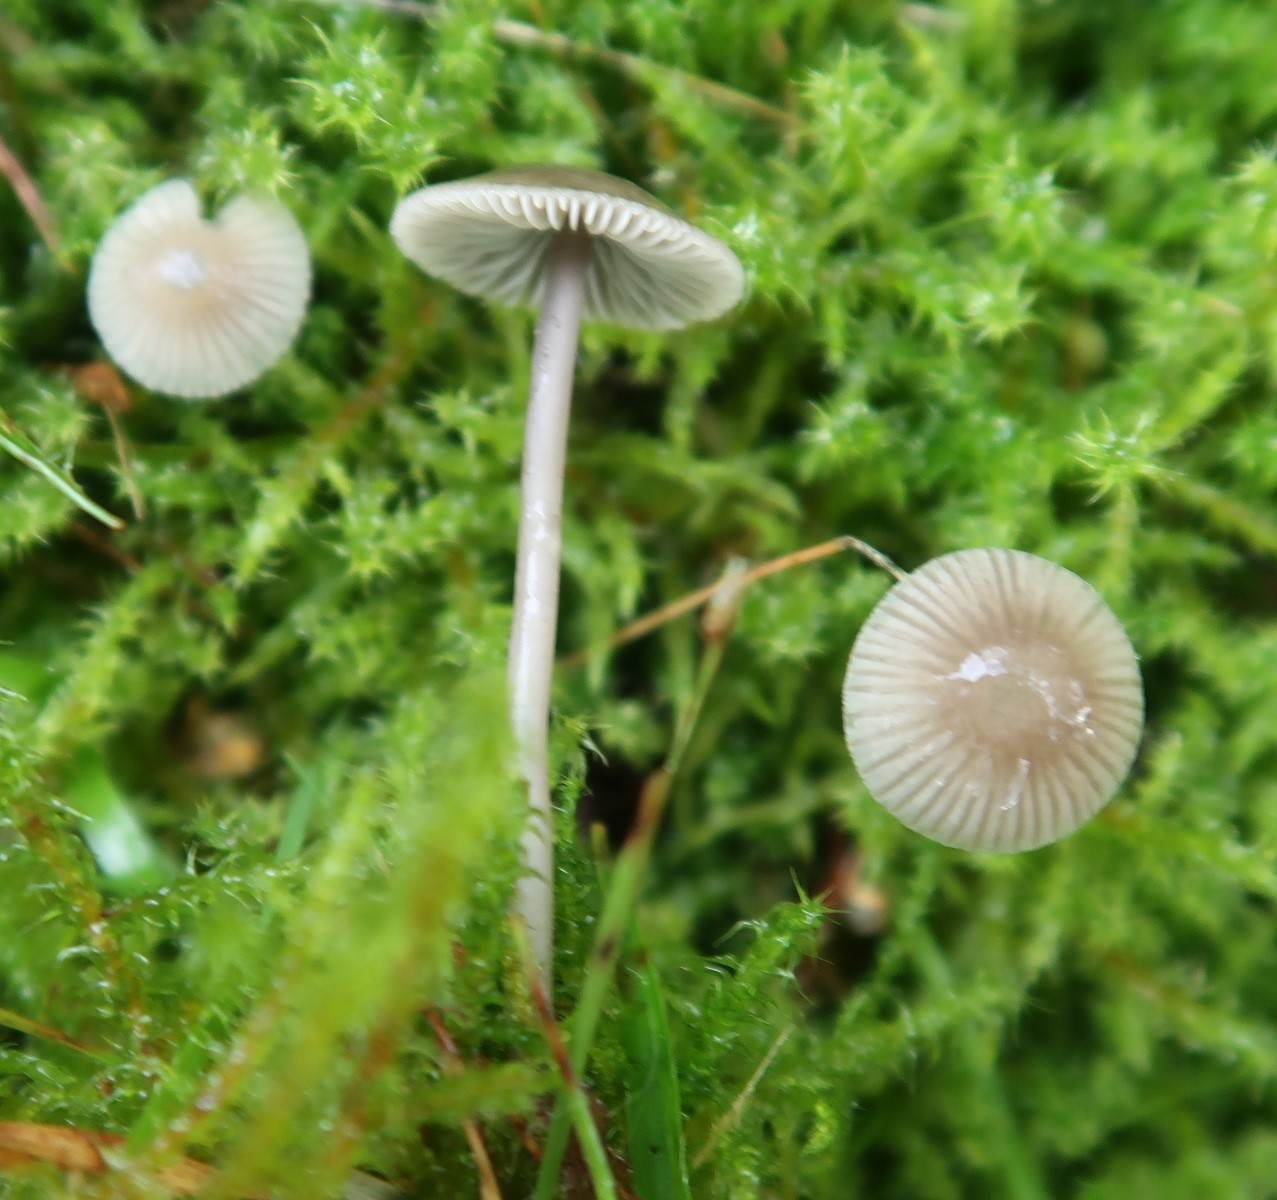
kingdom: Fungi
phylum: Basidiomycota
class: Agaricomycetes
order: Agaricales
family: Mycenaceae
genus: Mycena
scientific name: Mycena
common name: huesvamp
